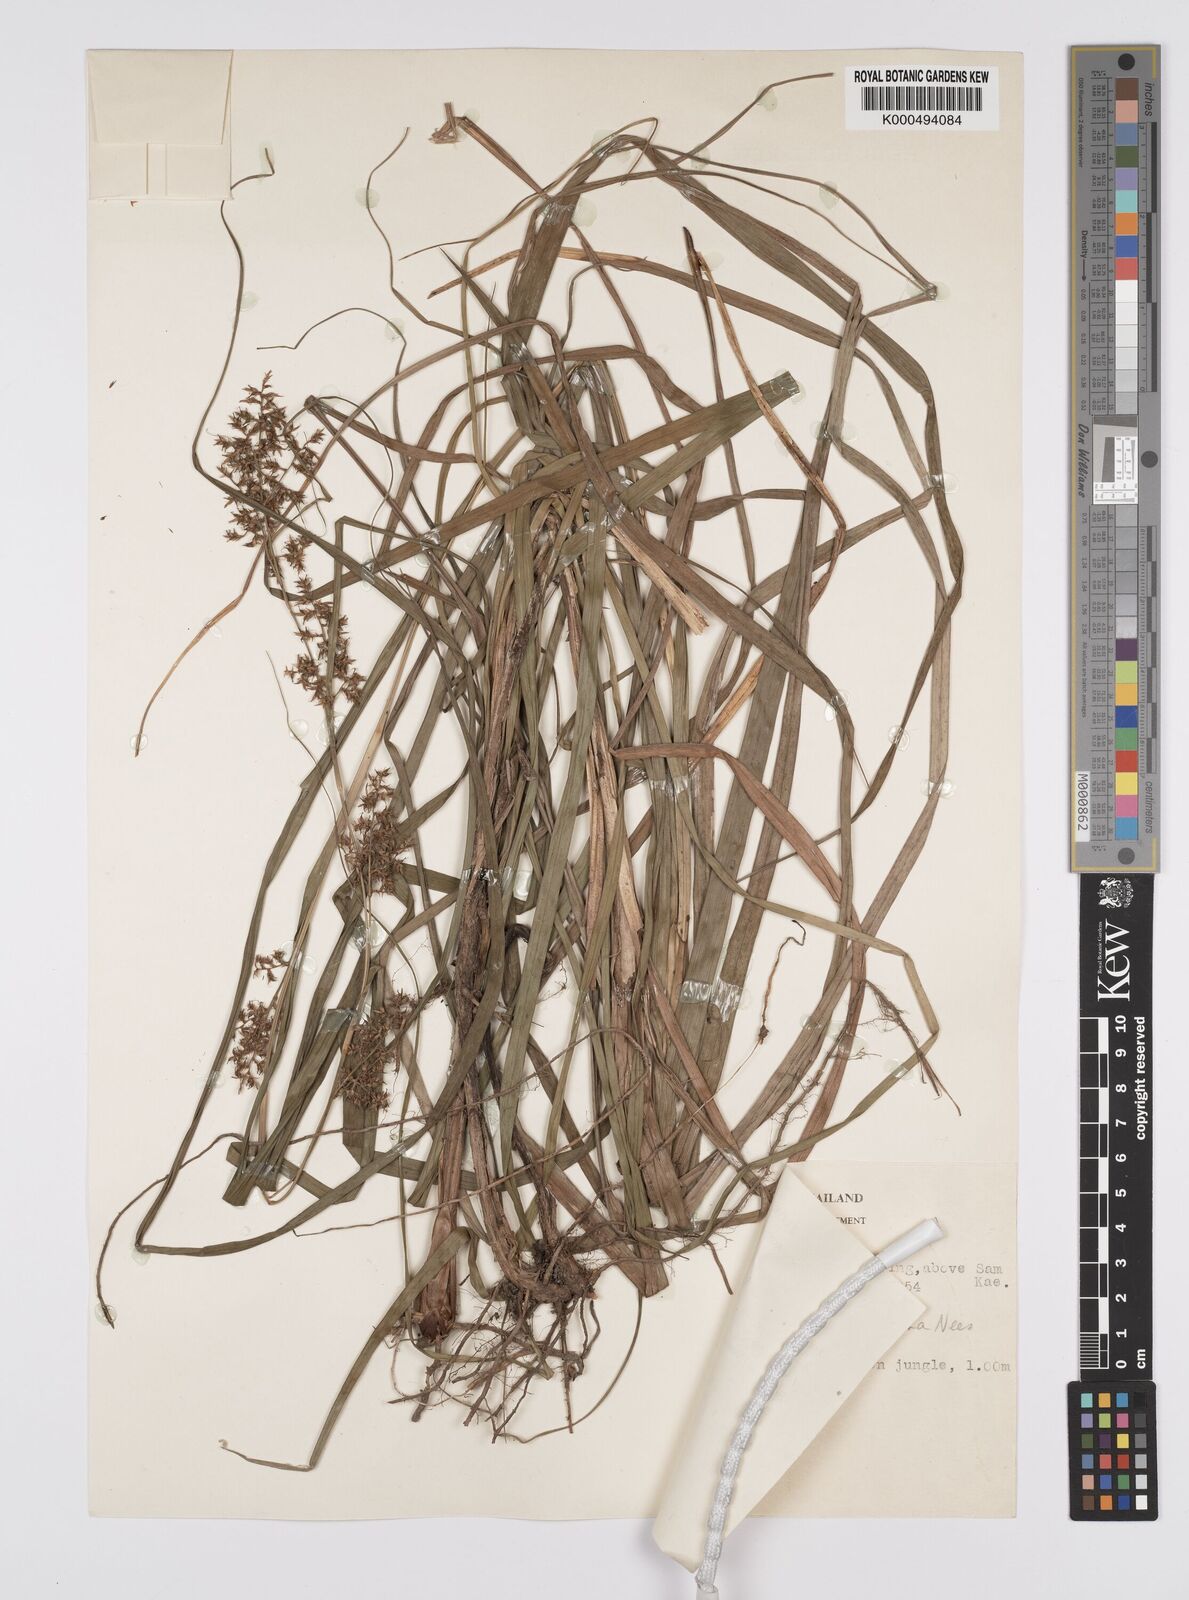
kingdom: Plantae
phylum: Tracheophyta
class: Liliopsida
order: Poales
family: Cyperaceae
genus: Carex
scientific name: Carex baccans
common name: Crimson seeded sedge
